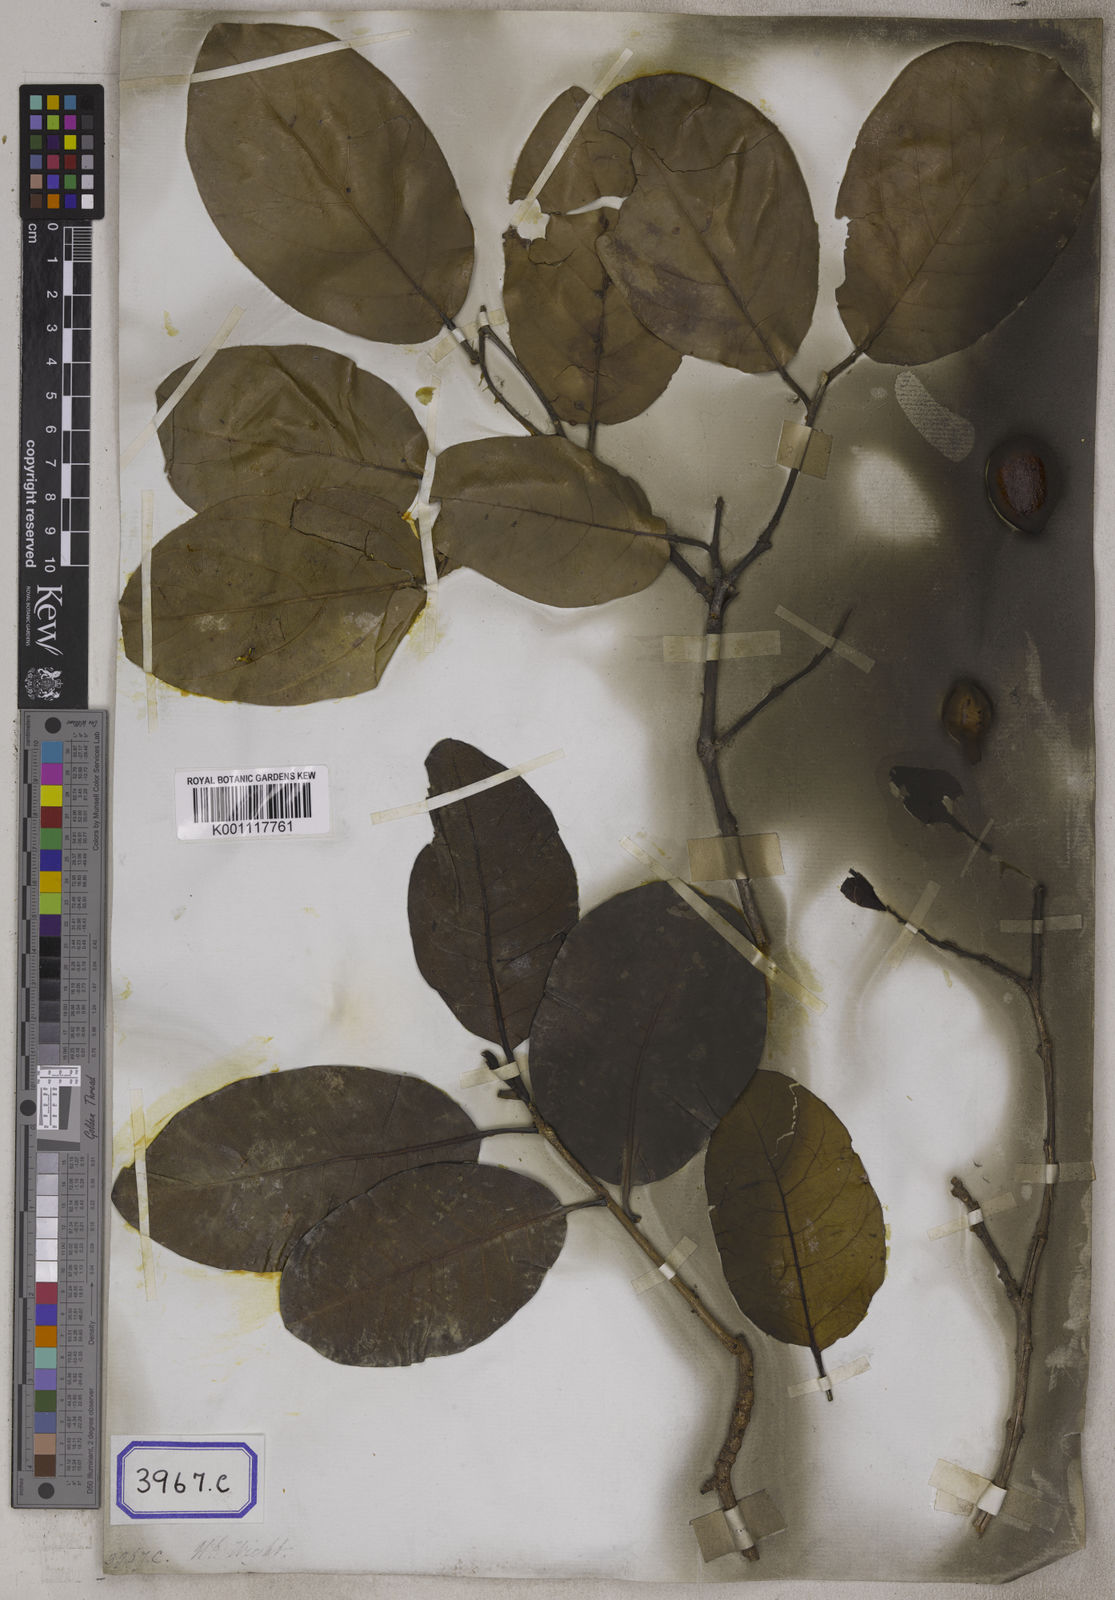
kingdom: Plantae
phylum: Tracheophyta
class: Magnoliopsida
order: Myrtales
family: Combretaceae
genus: Terminalia
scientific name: Terminalia chebula
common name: Myrobalan
